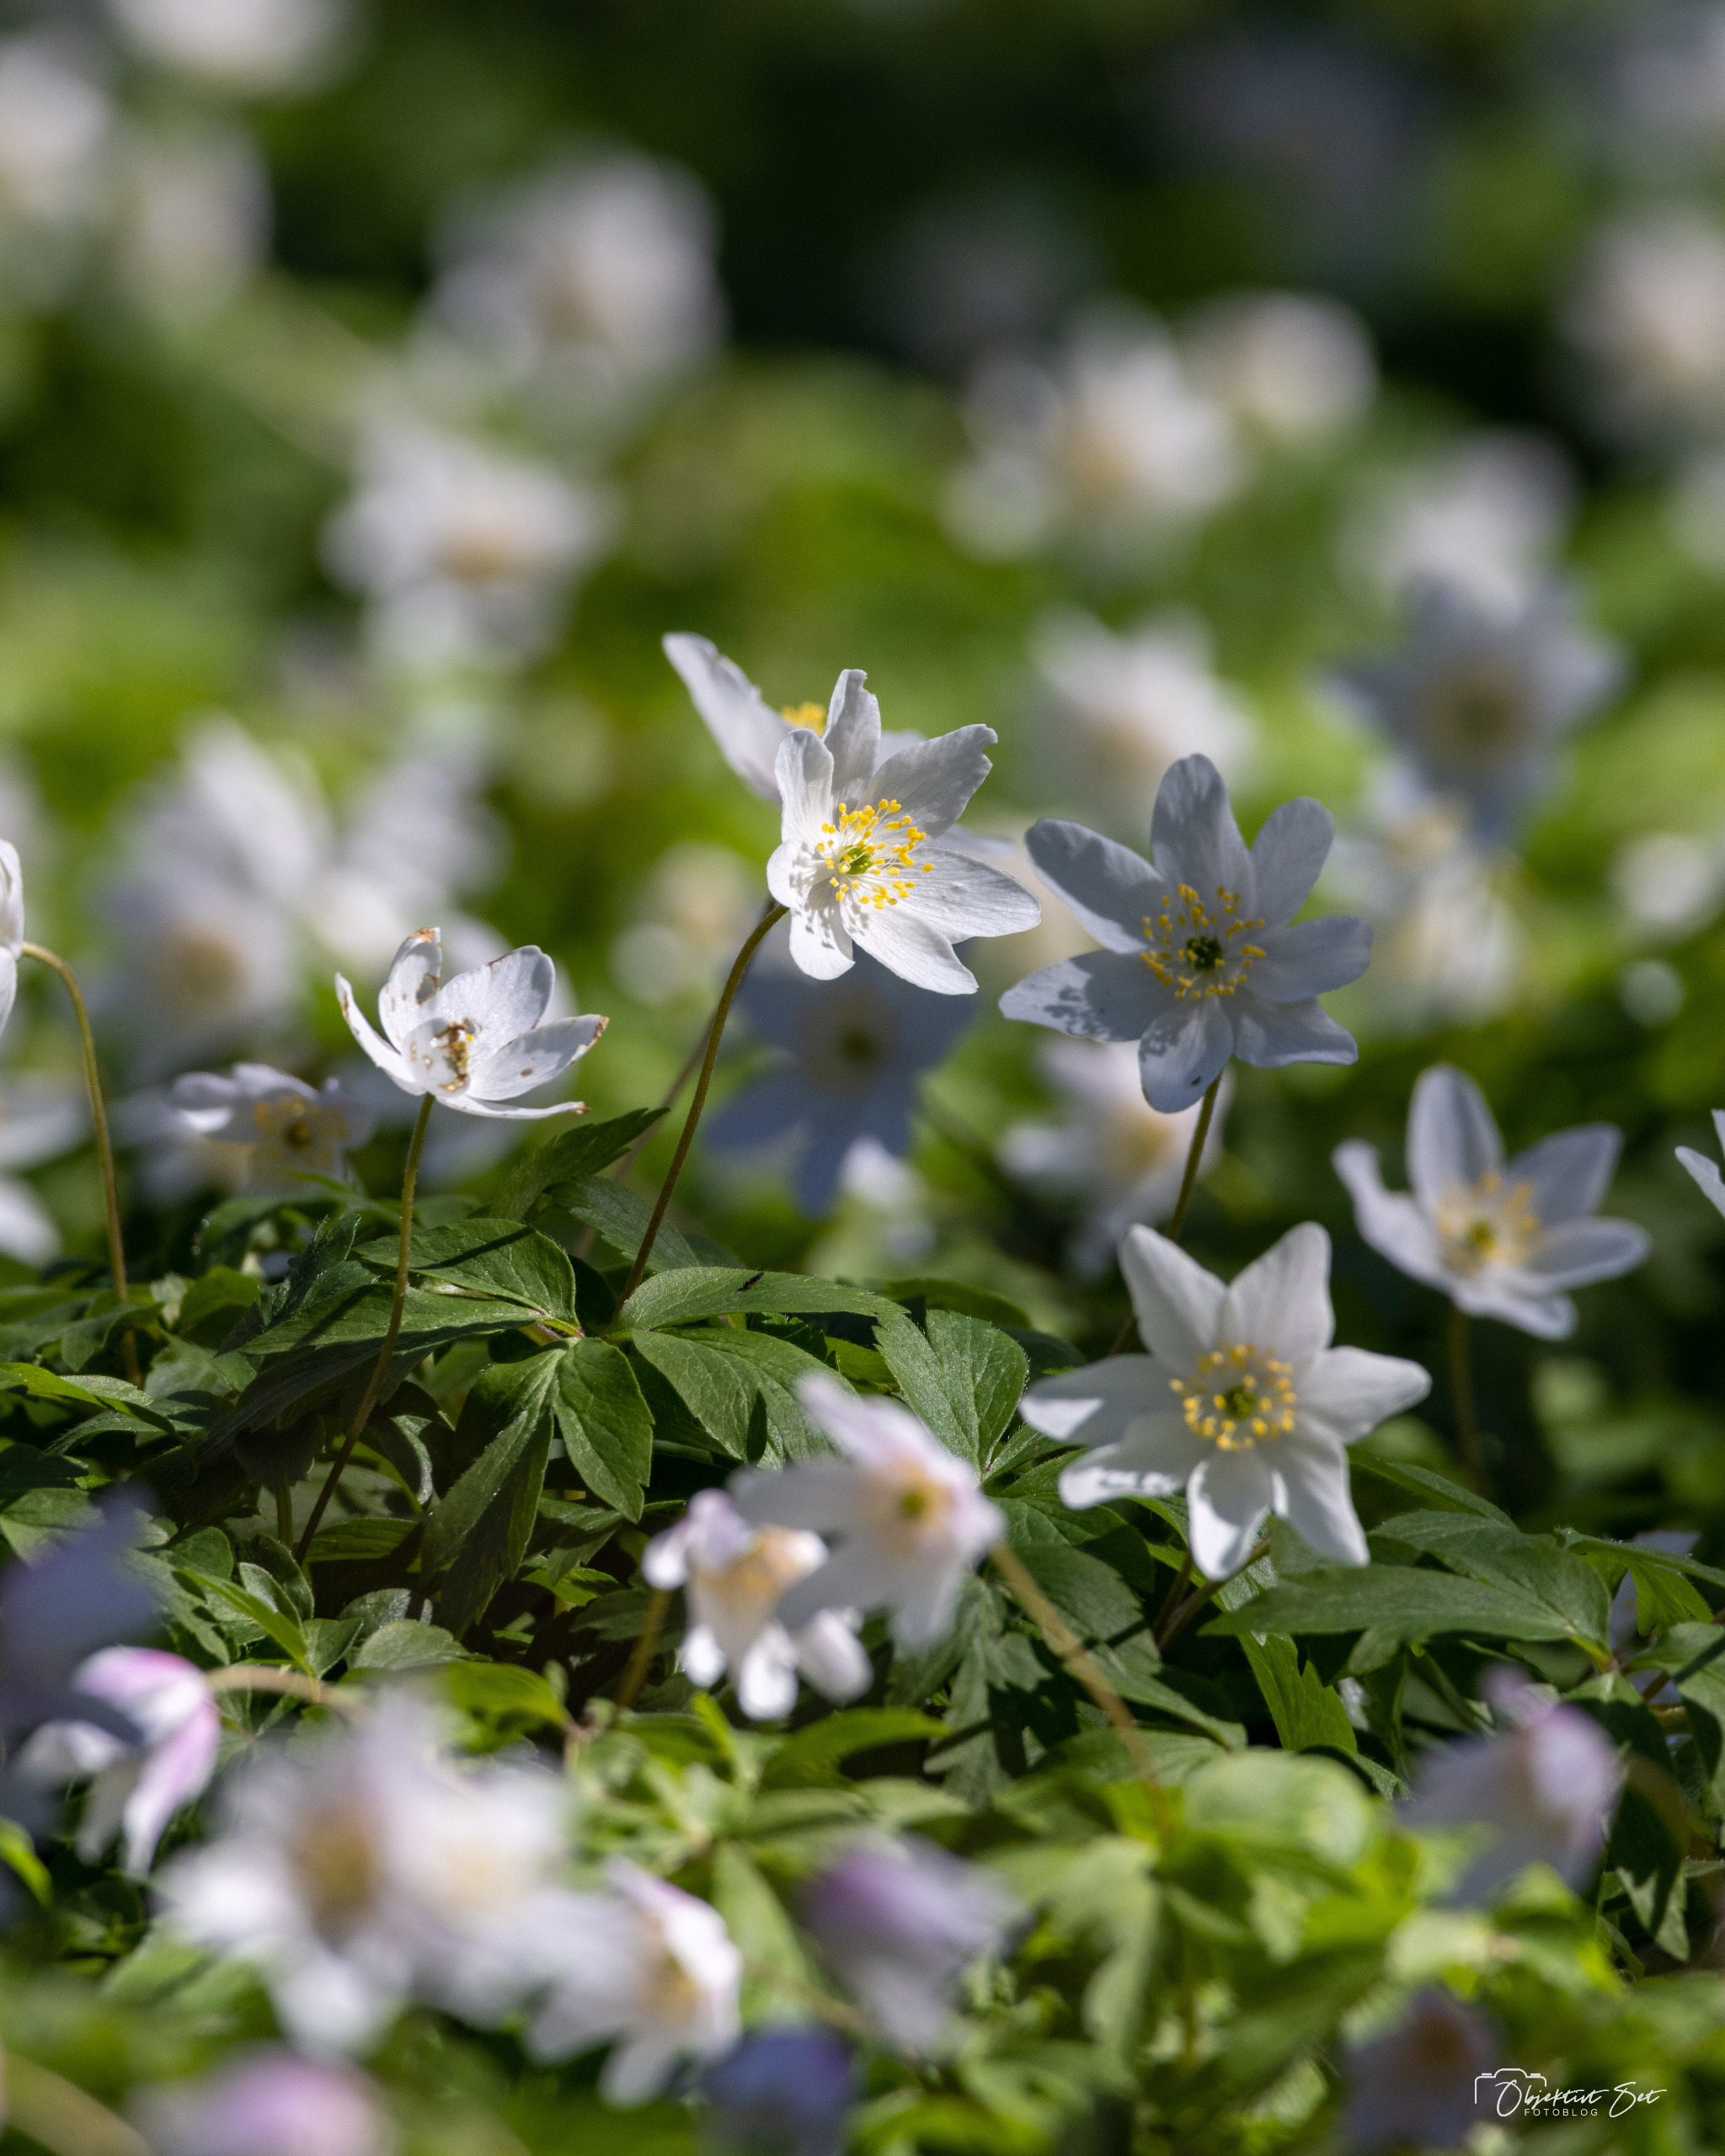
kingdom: Plantae
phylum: Tracheophyta
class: Magnoliopsida
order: Ranunculales
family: Ranunculaceae
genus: Anemone
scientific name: Anemone nemorosa
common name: Hvid anemone
